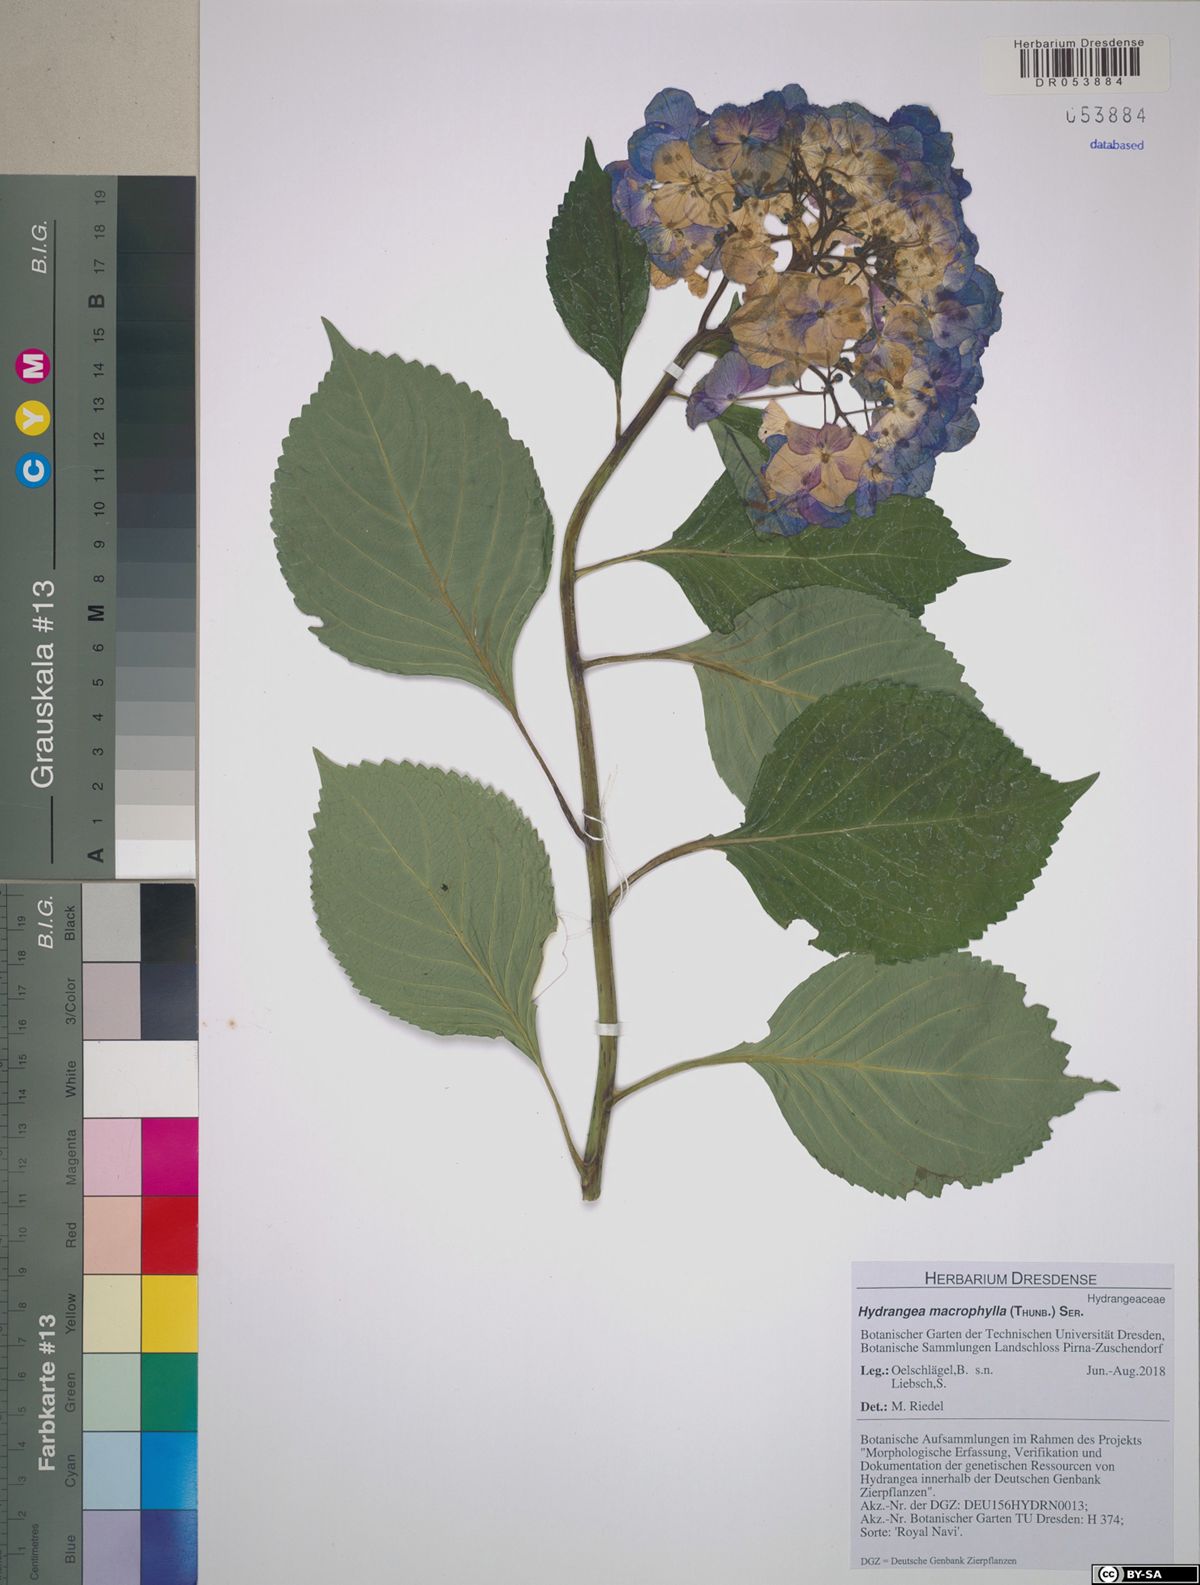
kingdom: Plantae
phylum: Tracheophyta
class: Magnoliopsida
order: Cornales
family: Hydrangeaceae
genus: Hydrangea
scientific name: Hydrangea macrophylla
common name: Hydrangea
